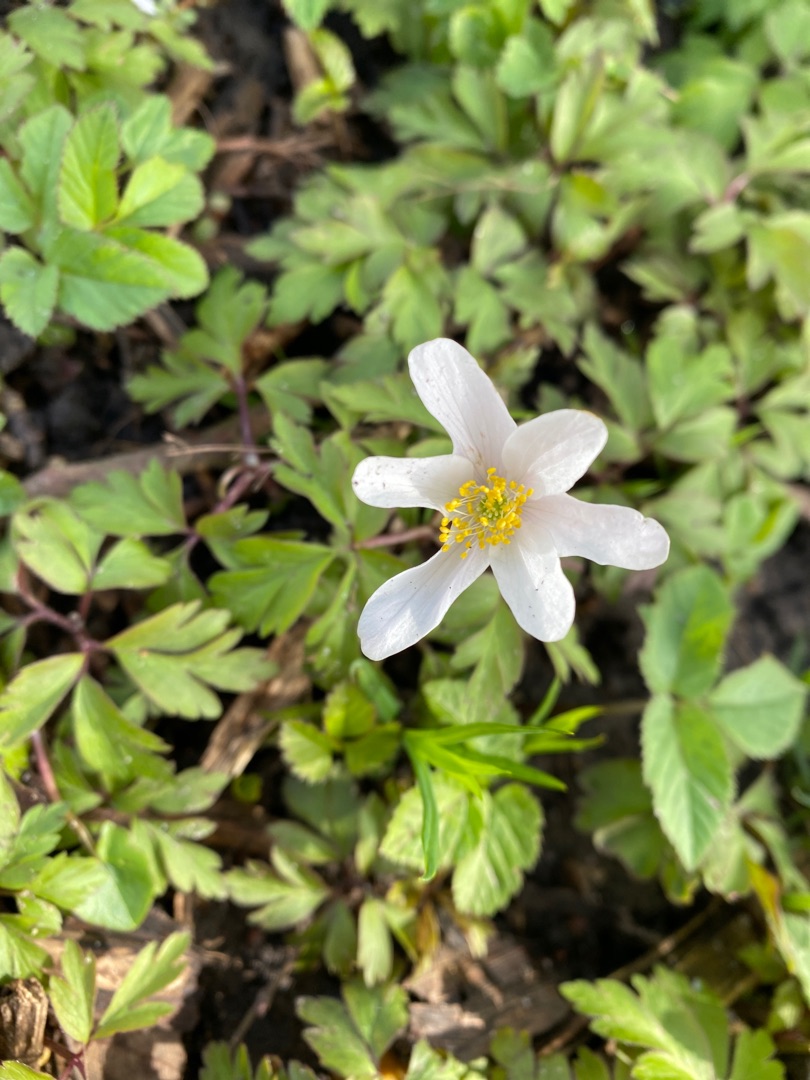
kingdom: Plantae
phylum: Tracheophyta
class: Magnoliopsida
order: Ranunculales
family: Ranunculaceae
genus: Anemone
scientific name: Anemone nemorosa
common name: Hvid anemone
